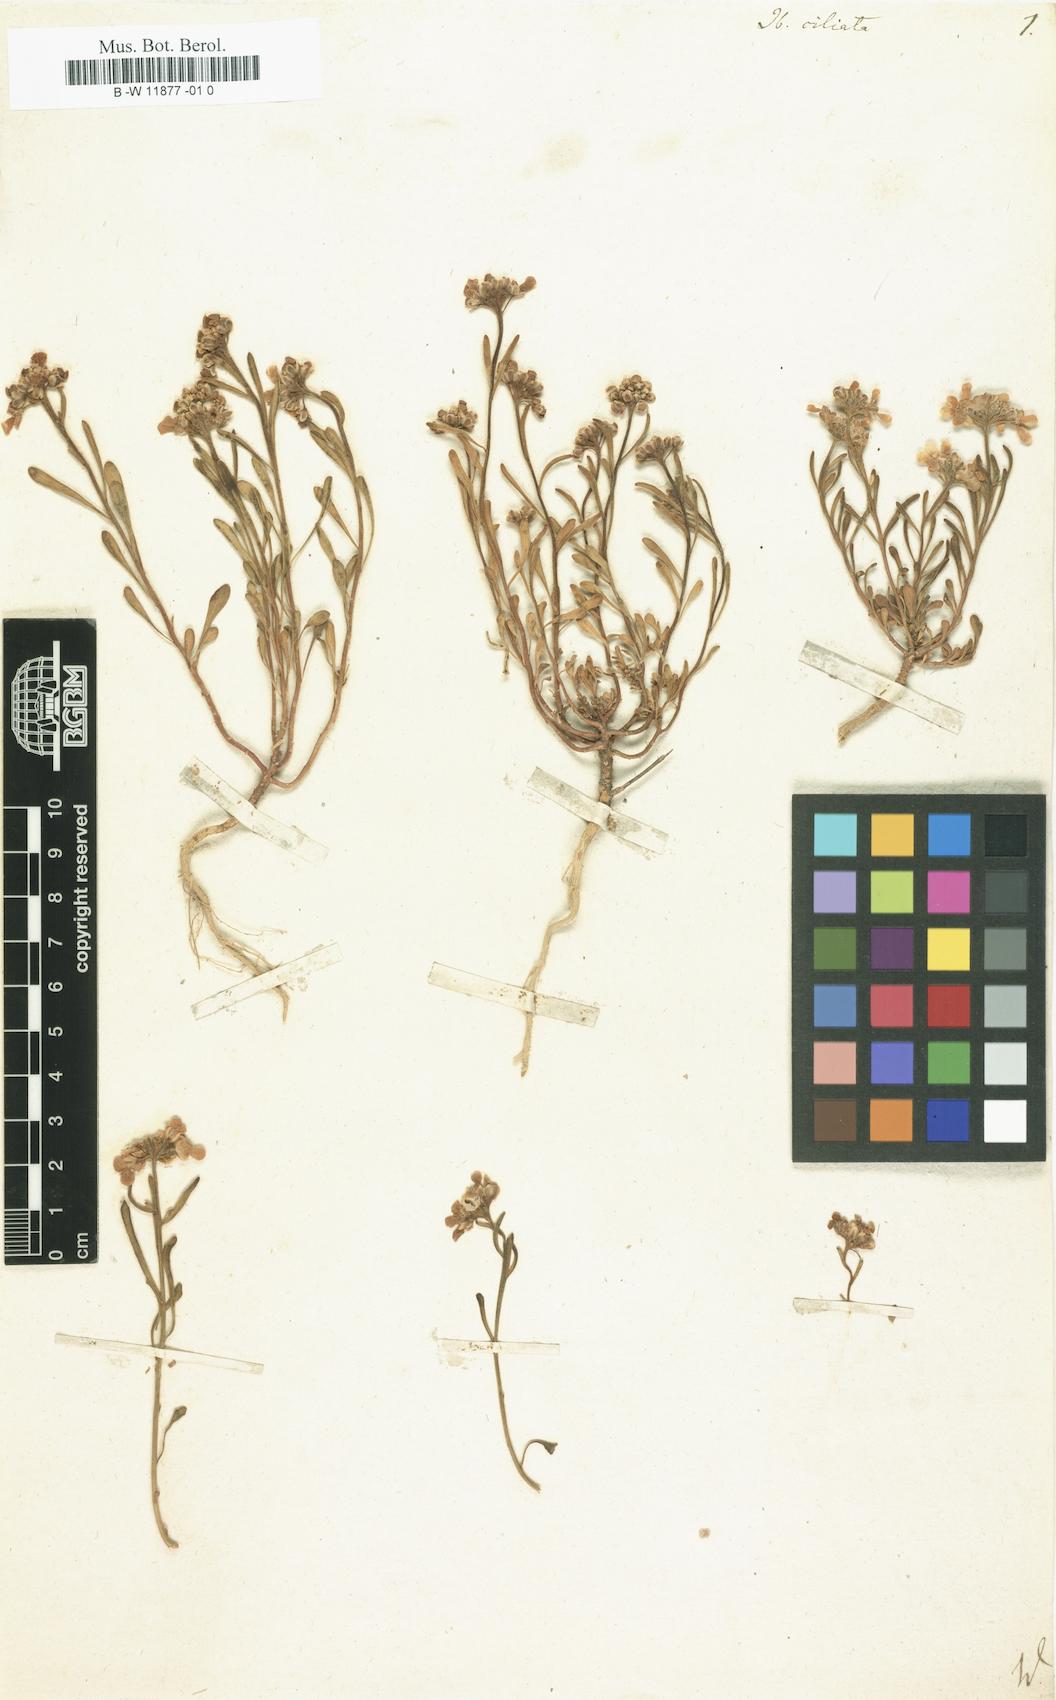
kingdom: Plantae
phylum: Tracheophyta
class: Magnoliopsida
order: Brassicales
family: Brassicaceae
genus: Iberis
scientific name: Iberis ciliata
